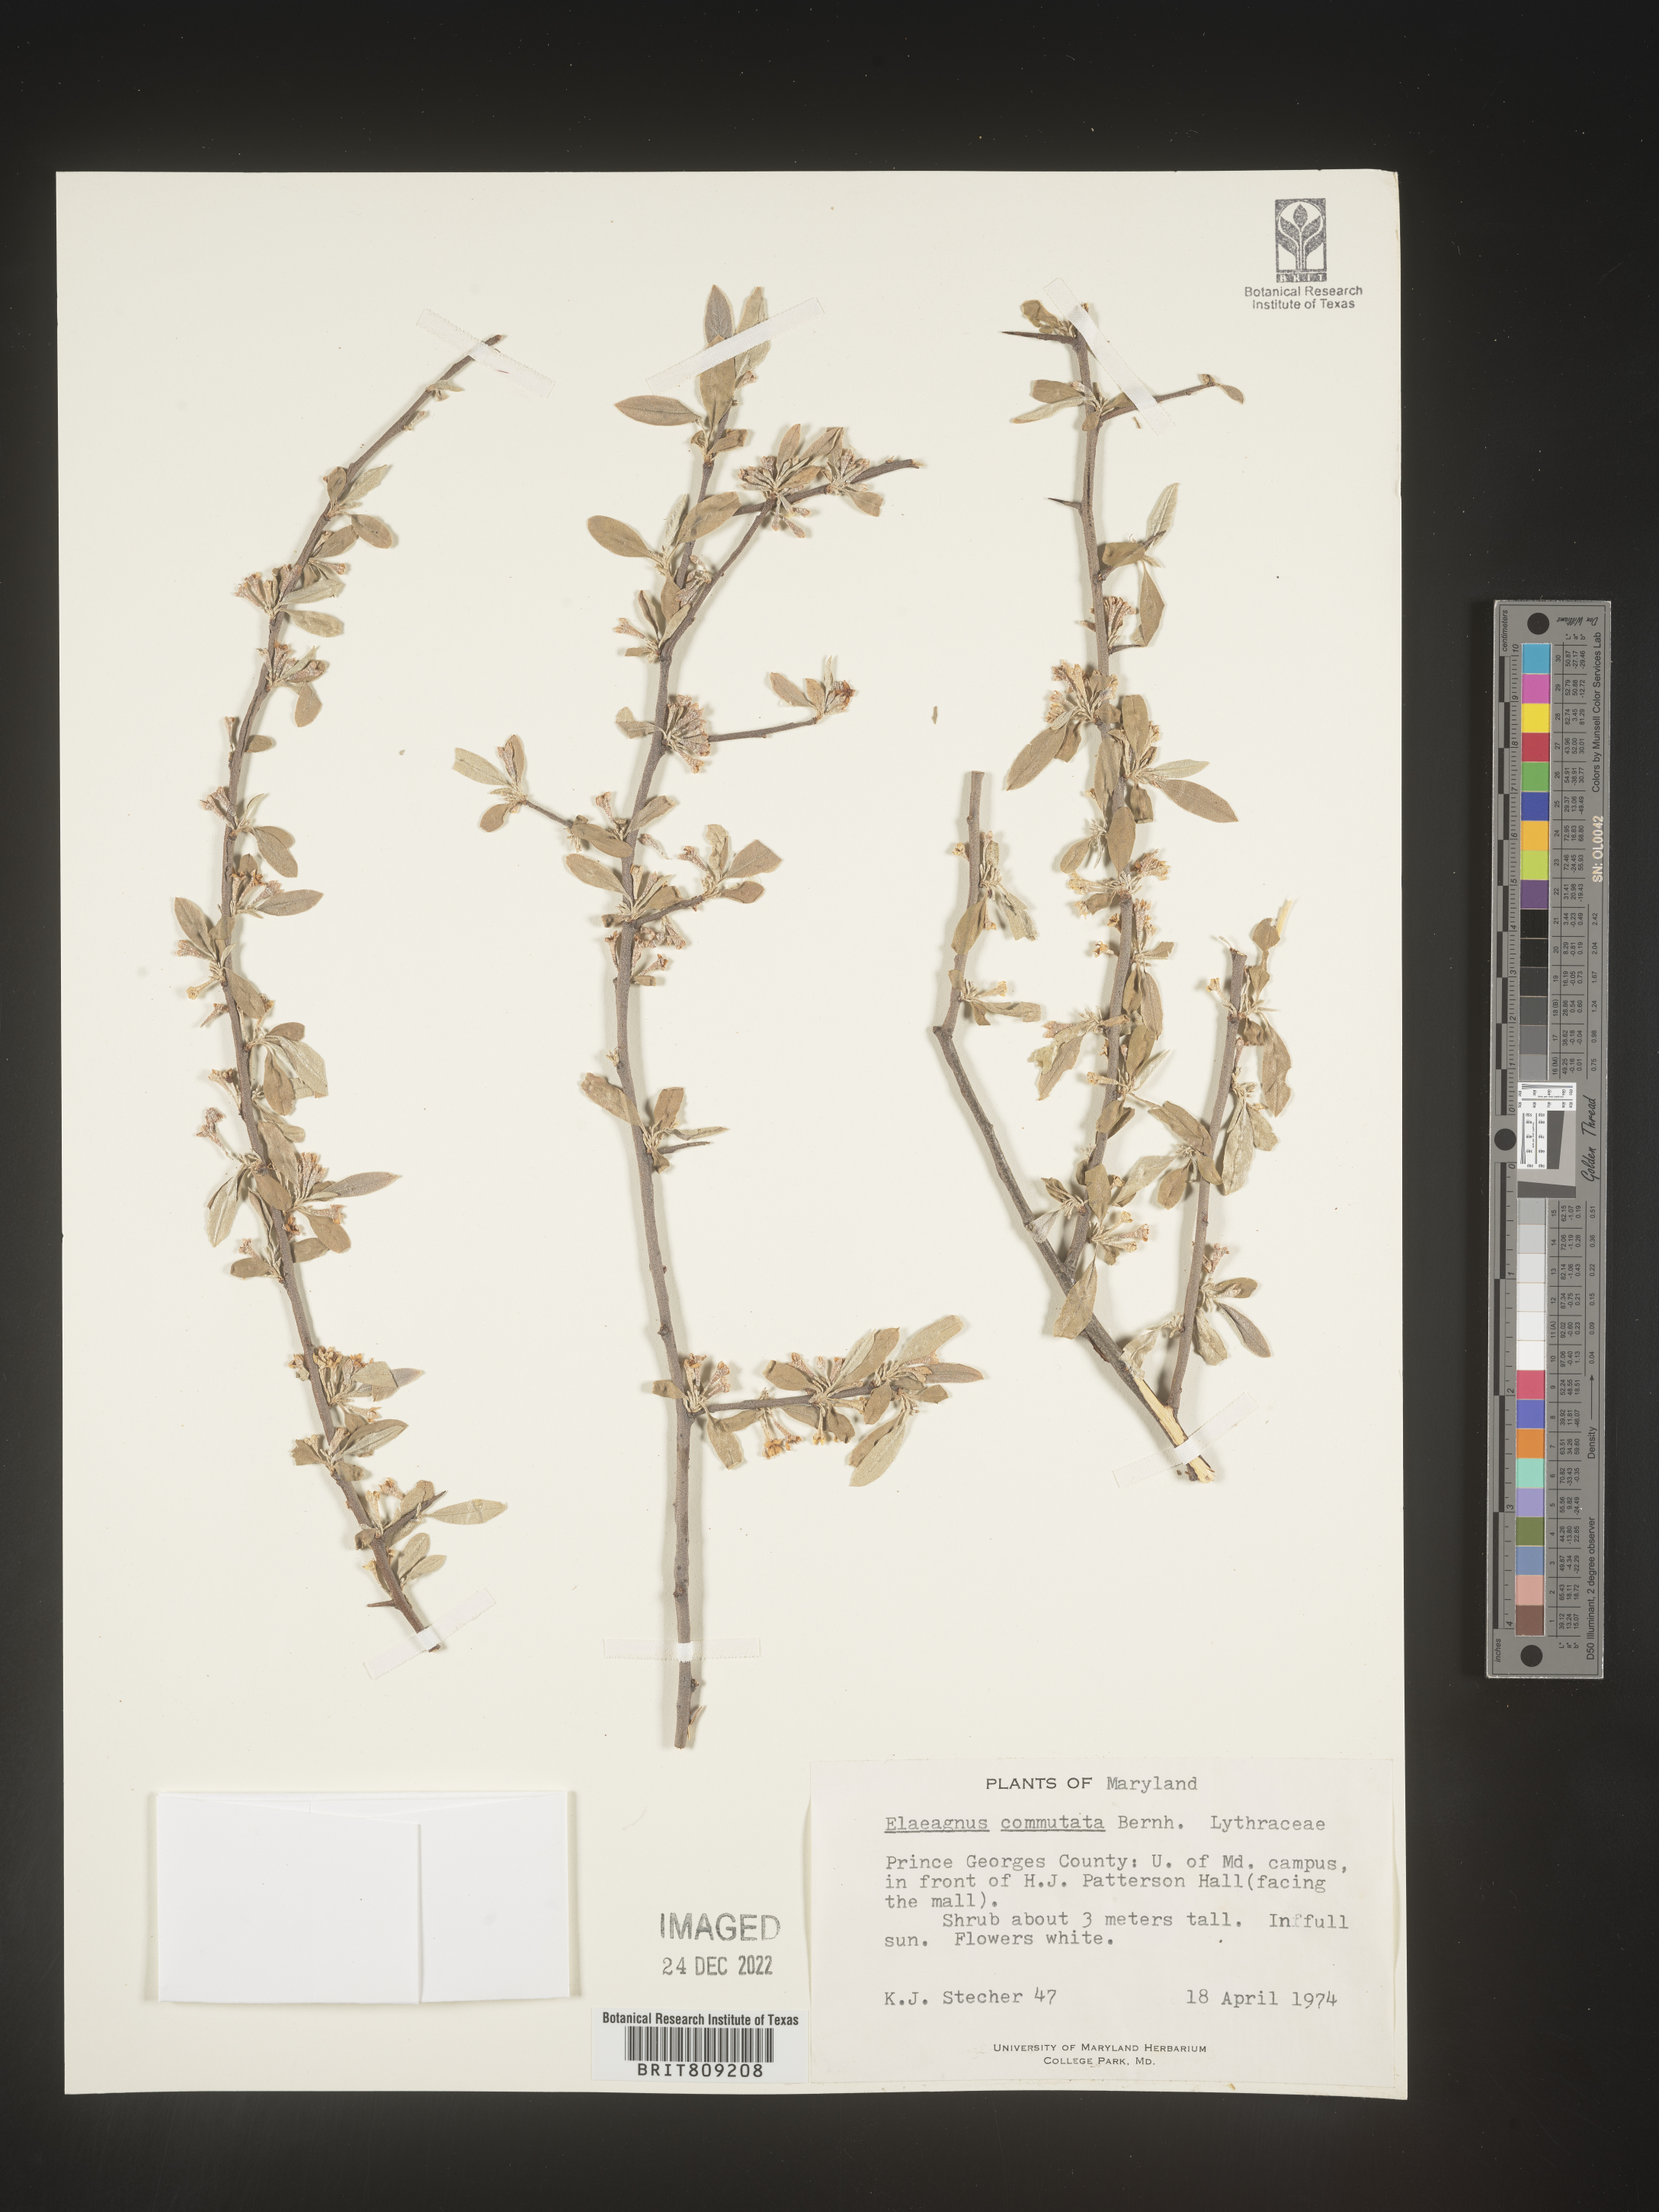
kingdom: Plantae
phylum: Tracheophyta
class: Magnoliopsida
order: Rosales
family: Elaeagnaceae
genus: Elaeagnus
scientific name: Elaeagnus
